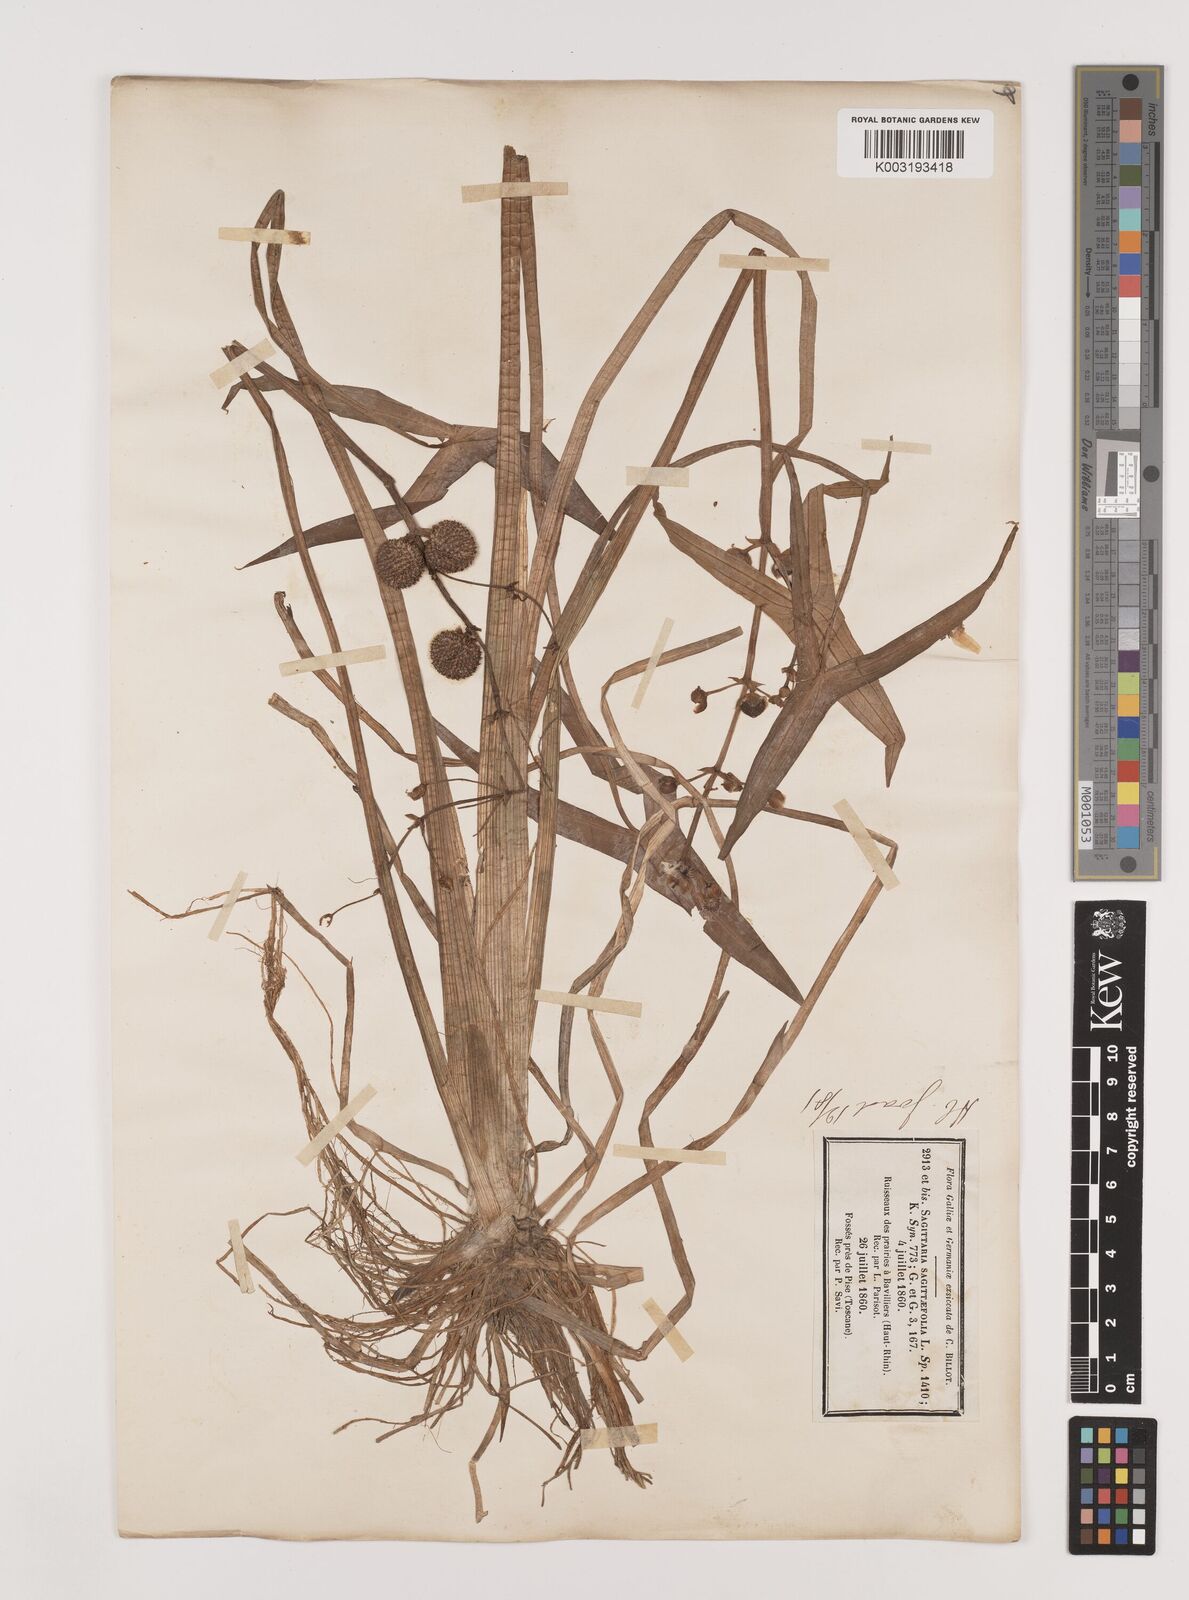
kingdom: Plantae
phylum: Tracheophyta
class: Liliopsida
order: Alismatales
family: Alismataceae
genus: Sagittaria
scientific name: Sagittaria sagittifolia
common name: Arrowhead
